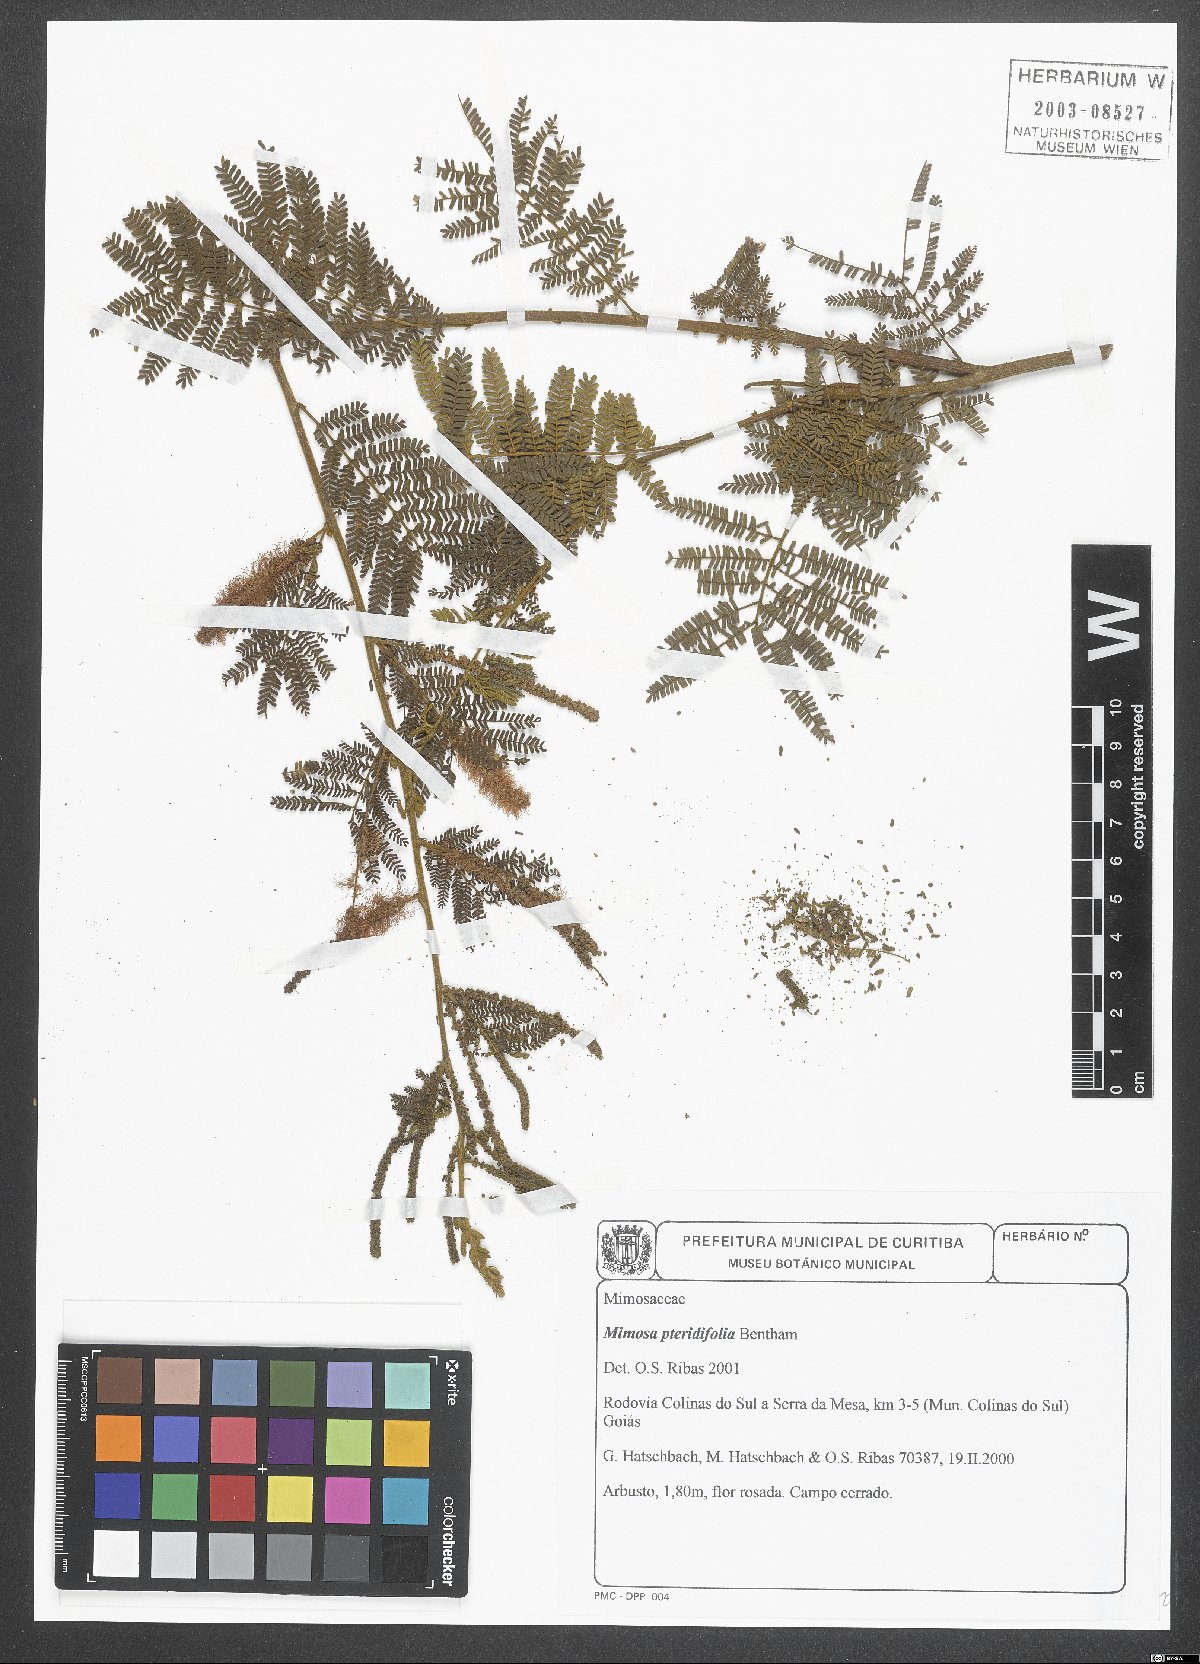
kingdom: Plantae
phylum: Tracheophyta
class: Magnoliopsida
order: Fabales
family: Fabaceae
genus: Mimosa
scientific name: Mimosa pteridifolia
